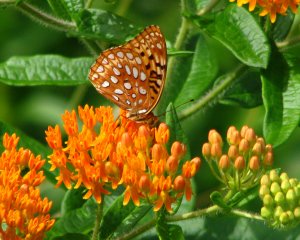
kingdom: Animalia
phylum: Arthropoda
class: Insecta
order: Lepidoptera
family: Nymphalidae
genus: Speyeria
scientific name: Speyeria aphrodite
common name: Aphrodite Fritillary
